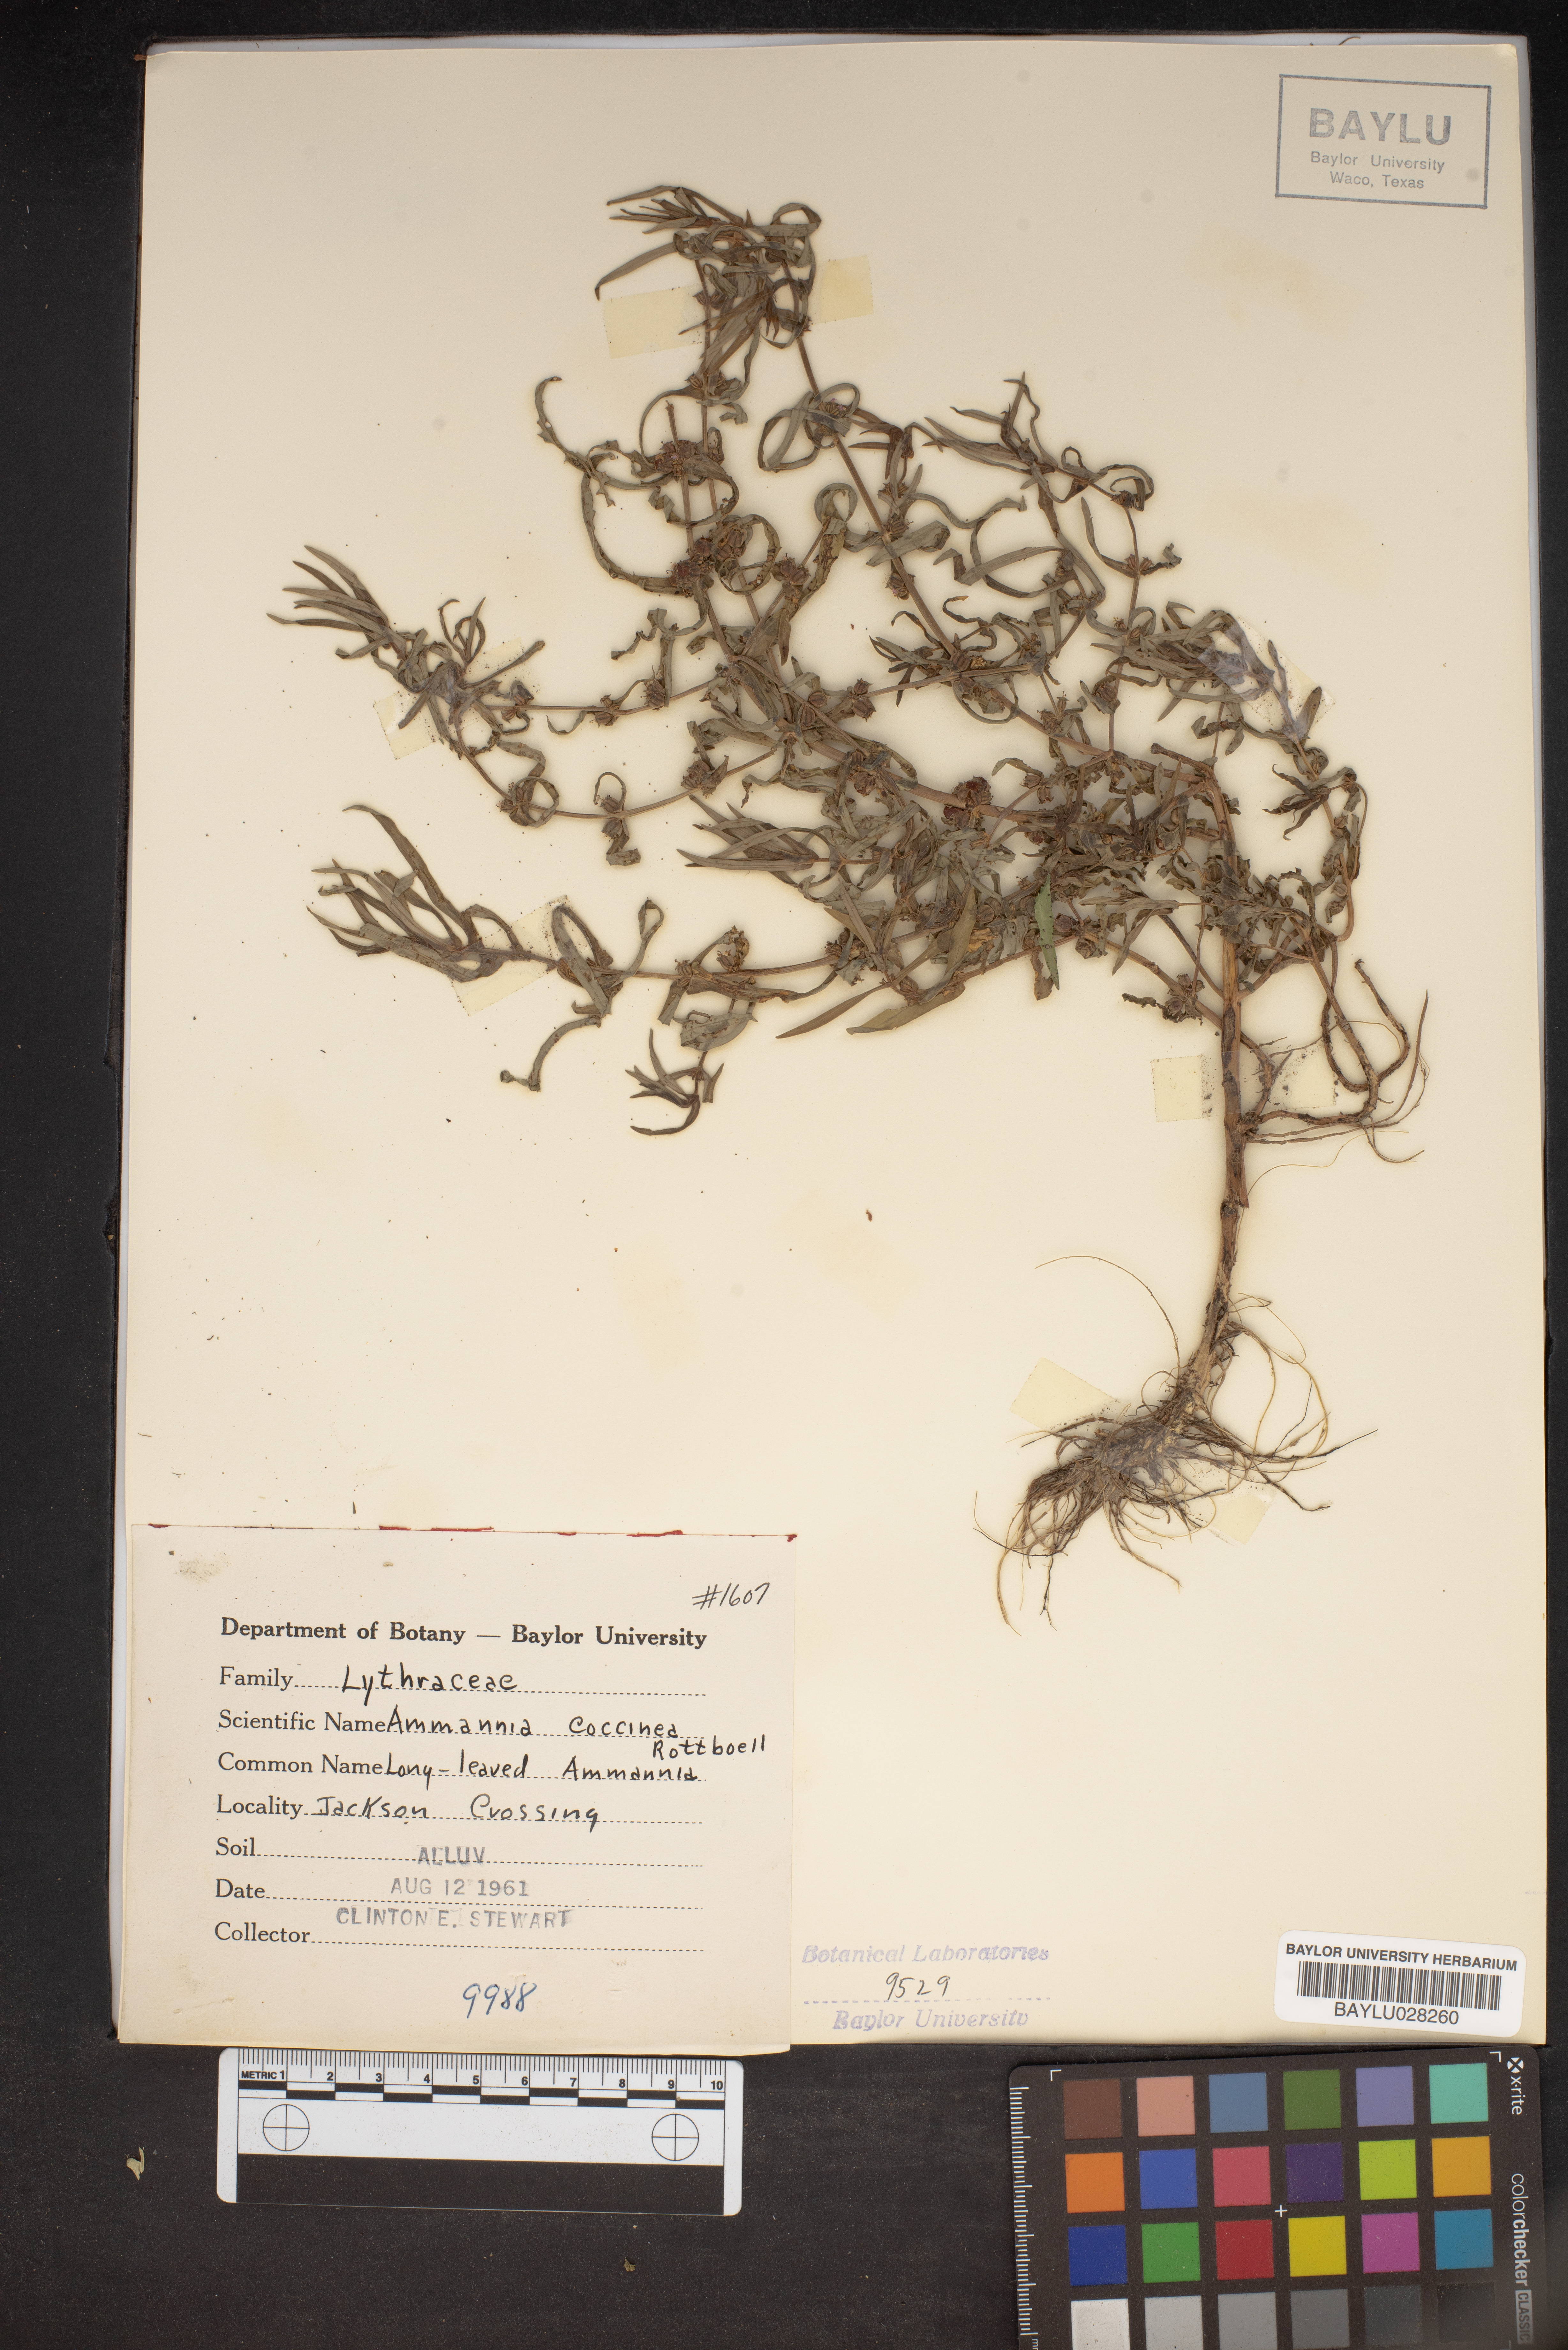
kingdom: Plantae
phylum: Tracheophyta
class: Magnoliopsida
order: Myrtales
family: Lythraceae
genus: Ammannia
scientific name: Ammannia coccinea
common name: Valley redstem
